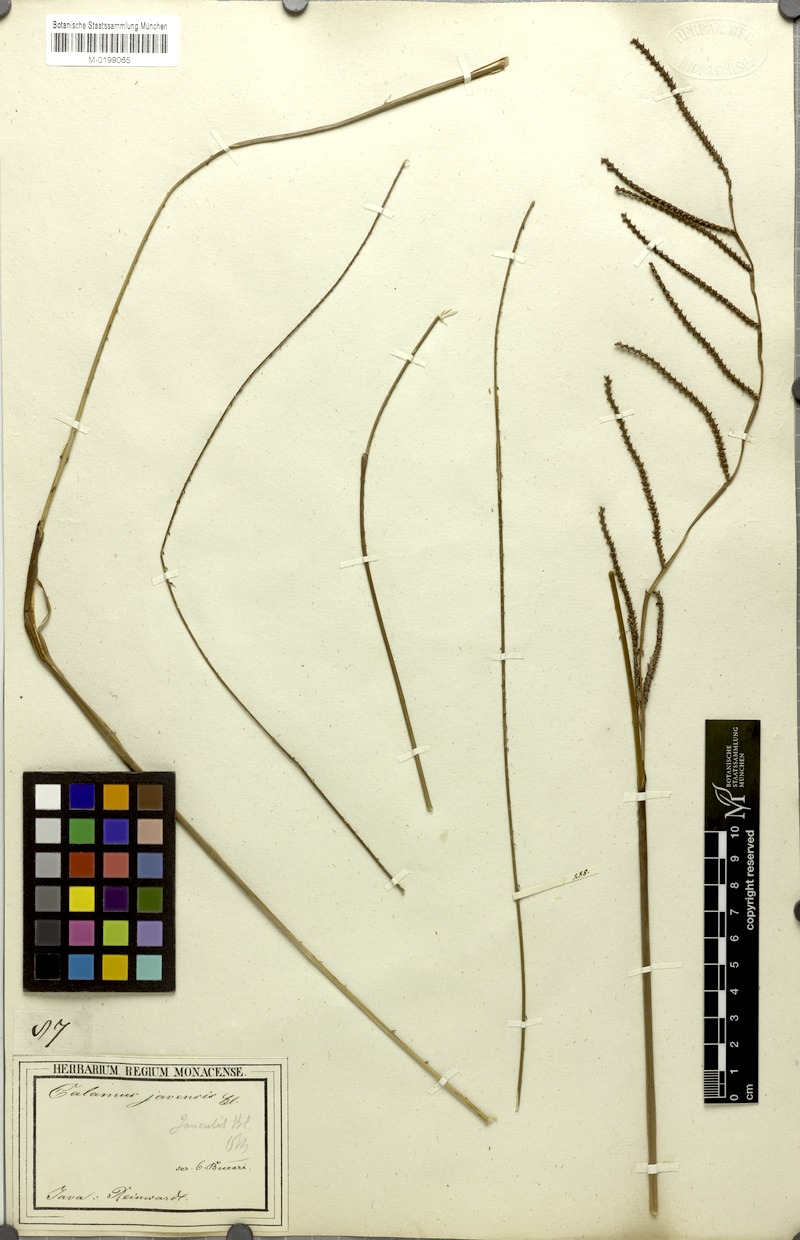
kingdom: Plantae
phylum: Tracheophyta
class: Liliopsida
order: Arecales
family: Arecaceae
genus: Calamus
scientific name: Calamus javensis
